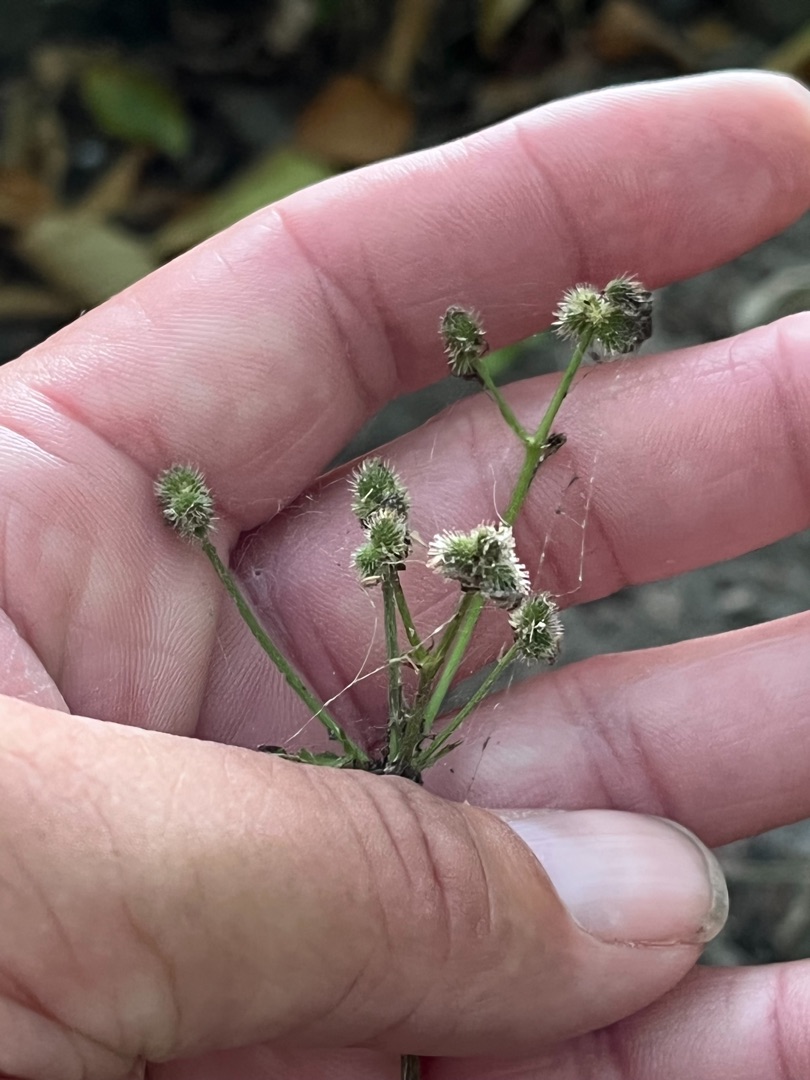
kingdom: Plantae
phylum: Tracheophyta
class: Magnoliopsida
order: Apiales
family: Apiaceae
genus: Sanicula
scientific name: Sanicula europaea
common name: Sanikel
